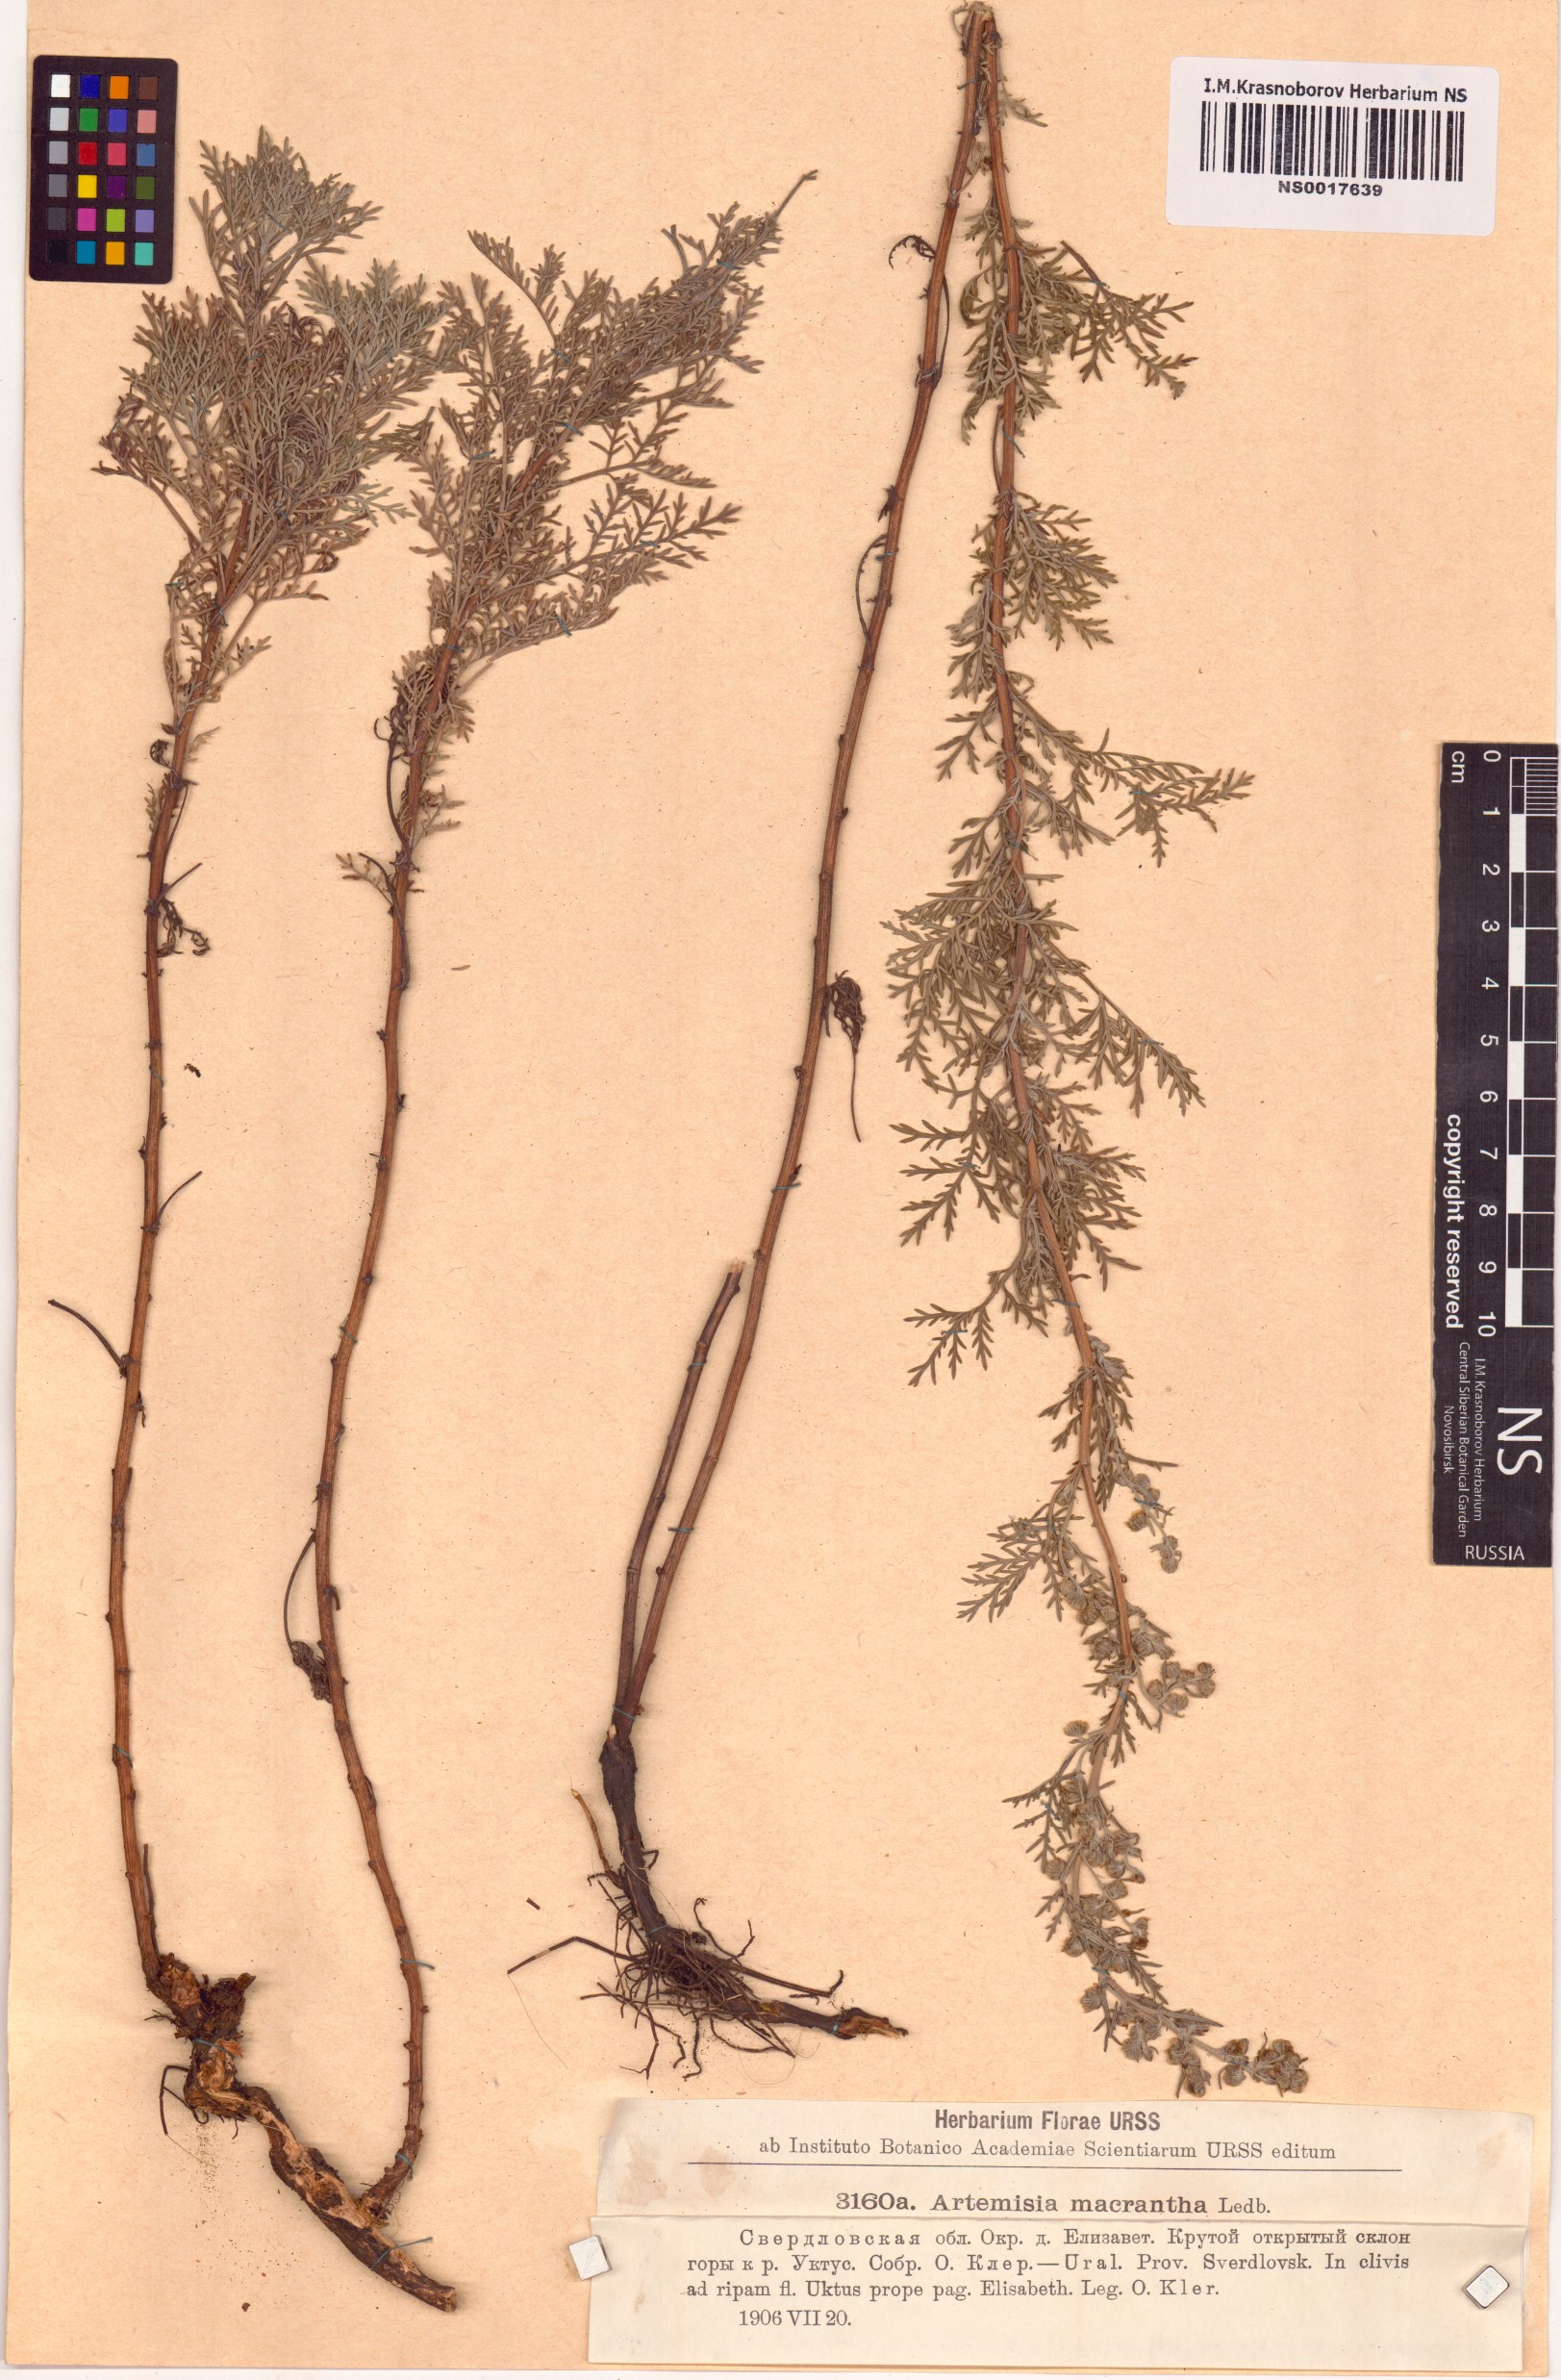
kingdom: Plantae
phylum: Tracheophyta
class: Magnoliopsida
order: Asterales
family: Asteraceae
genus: Artemisia
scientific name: Artemisia macrantha
